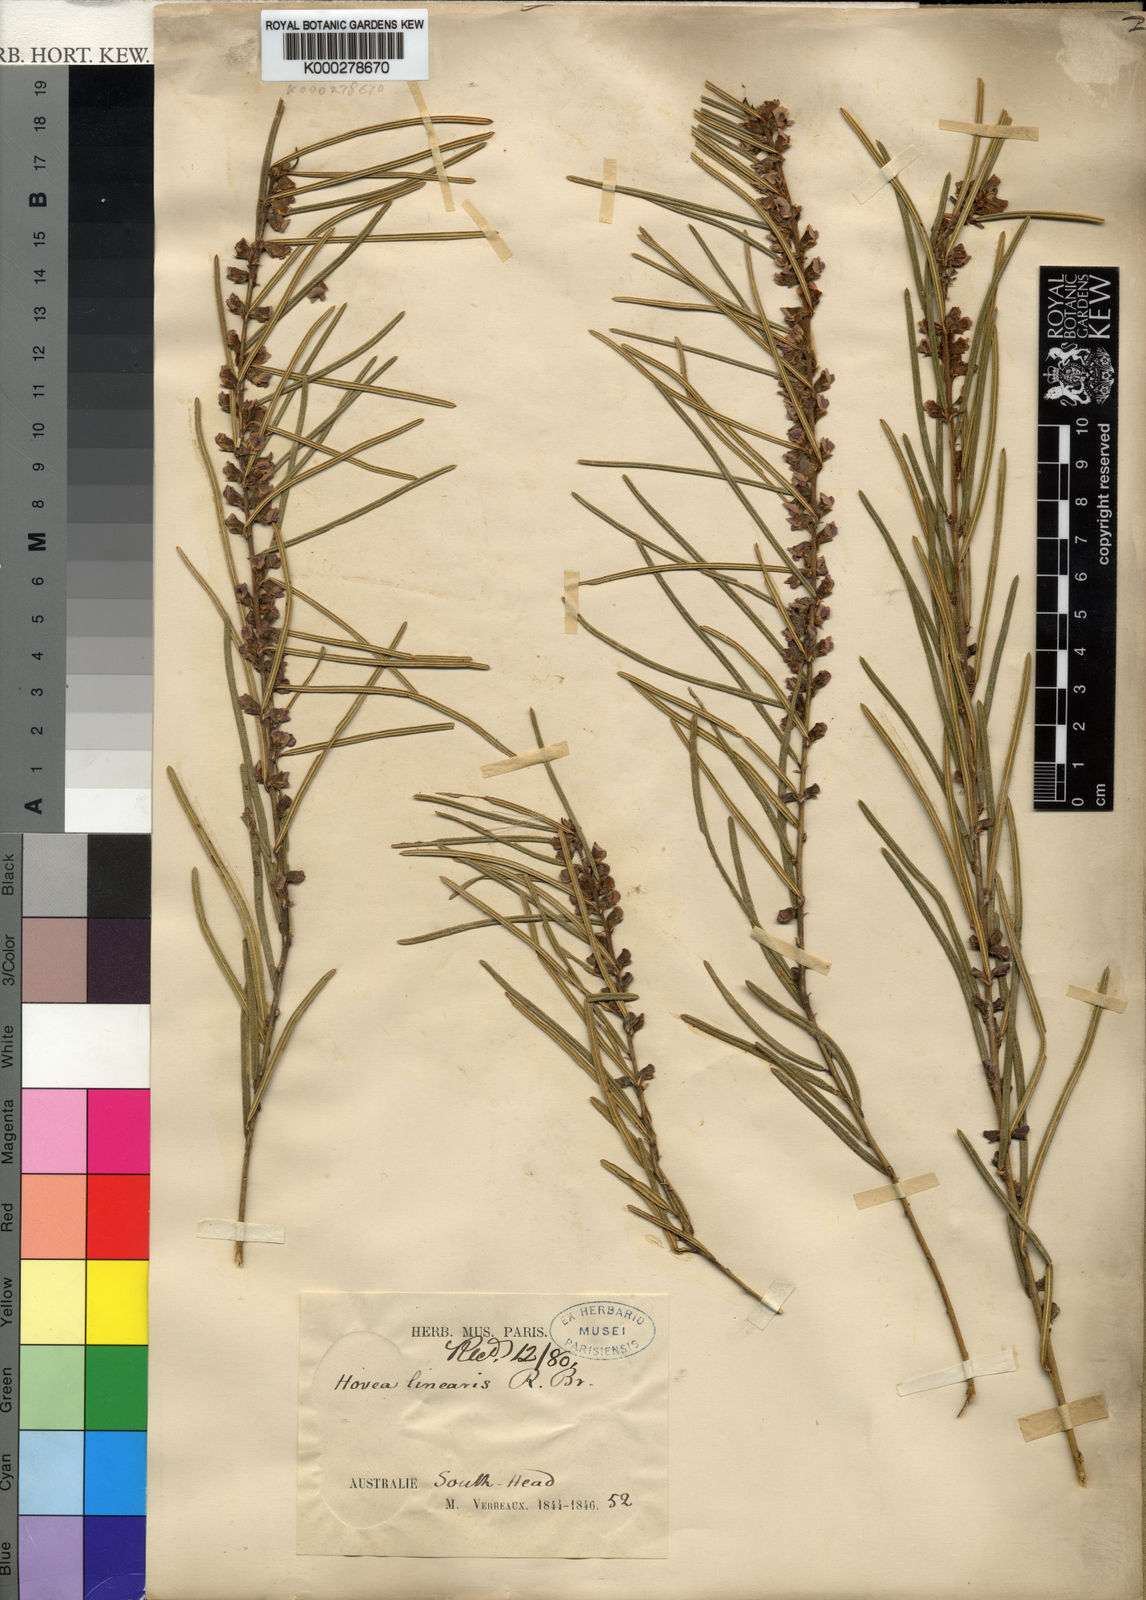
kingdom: Plantae
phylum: Tracheophyta
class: Magnoliopsida
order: Fabales
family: Fabaceae
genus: Hovea
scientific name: Hovea linearis
